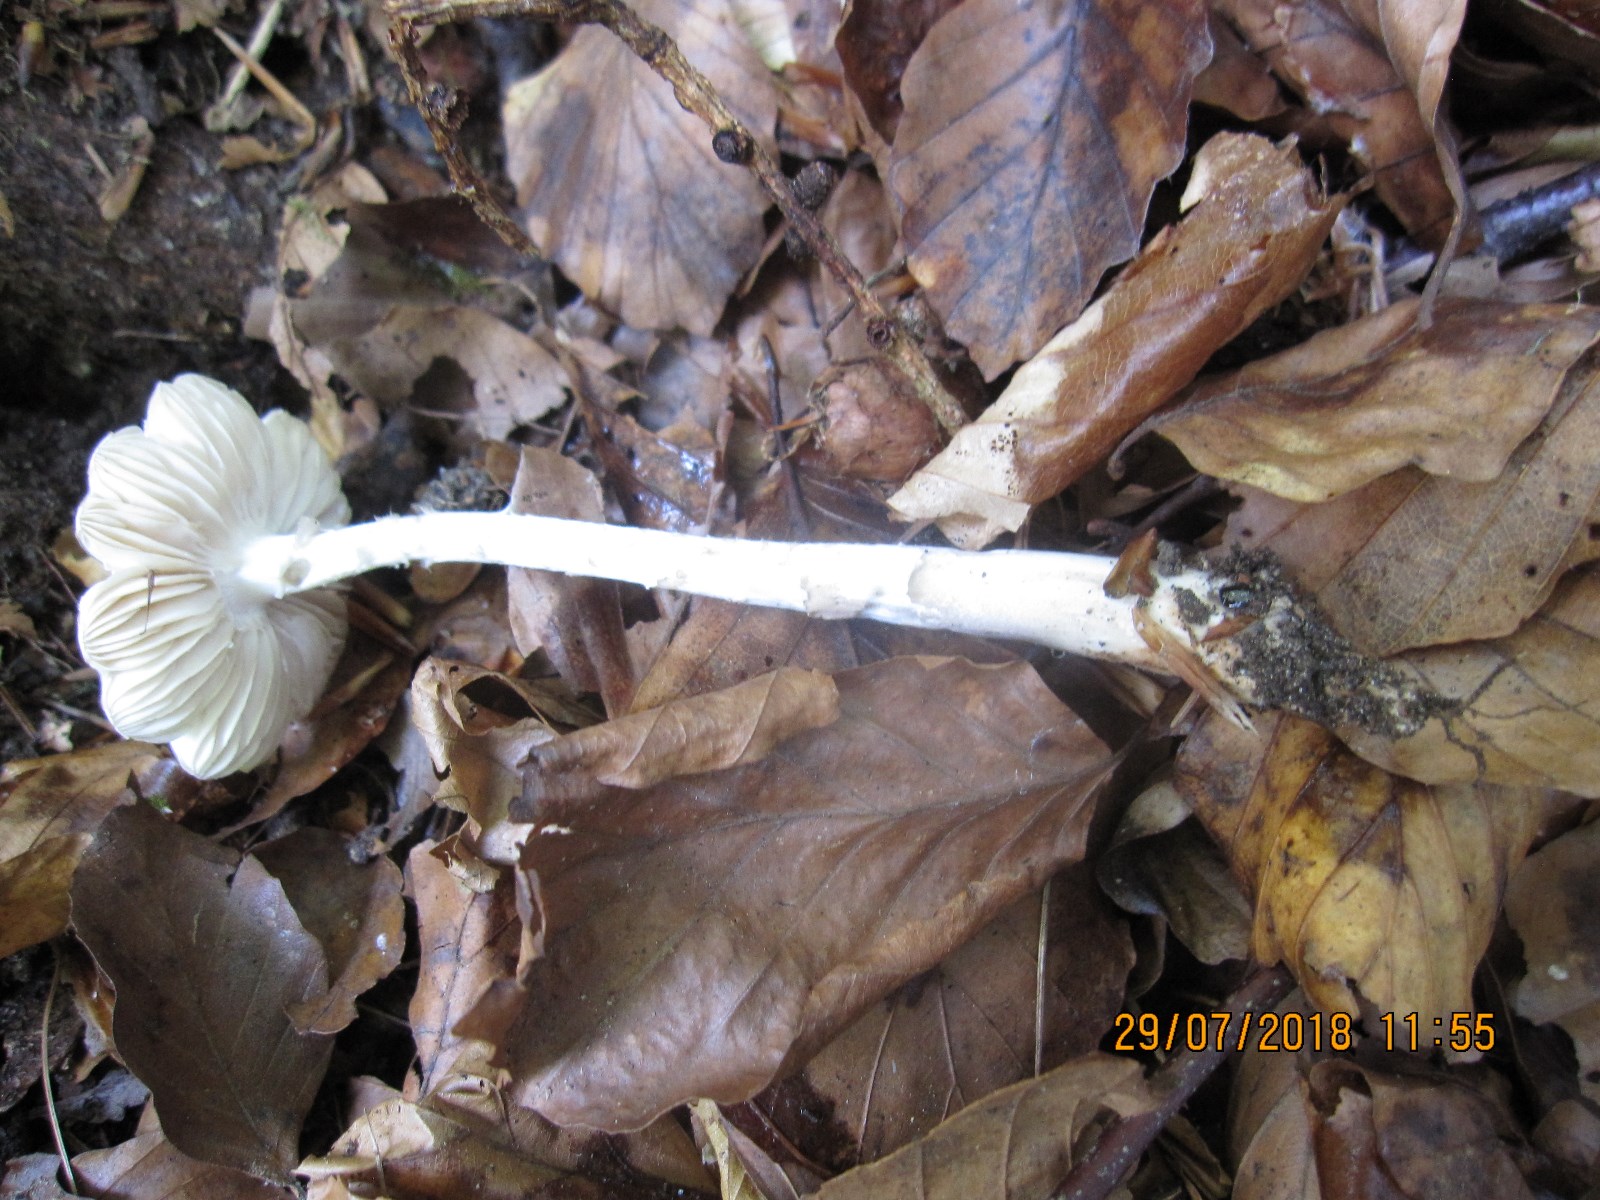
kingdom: Fungi
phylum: Basidiomycota
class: Agaricomycetes
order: Agaricales
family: Physalacriaceae
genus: Hymenopellis
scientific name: Hymenopellis radicata
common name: almindelig pælerodshat
